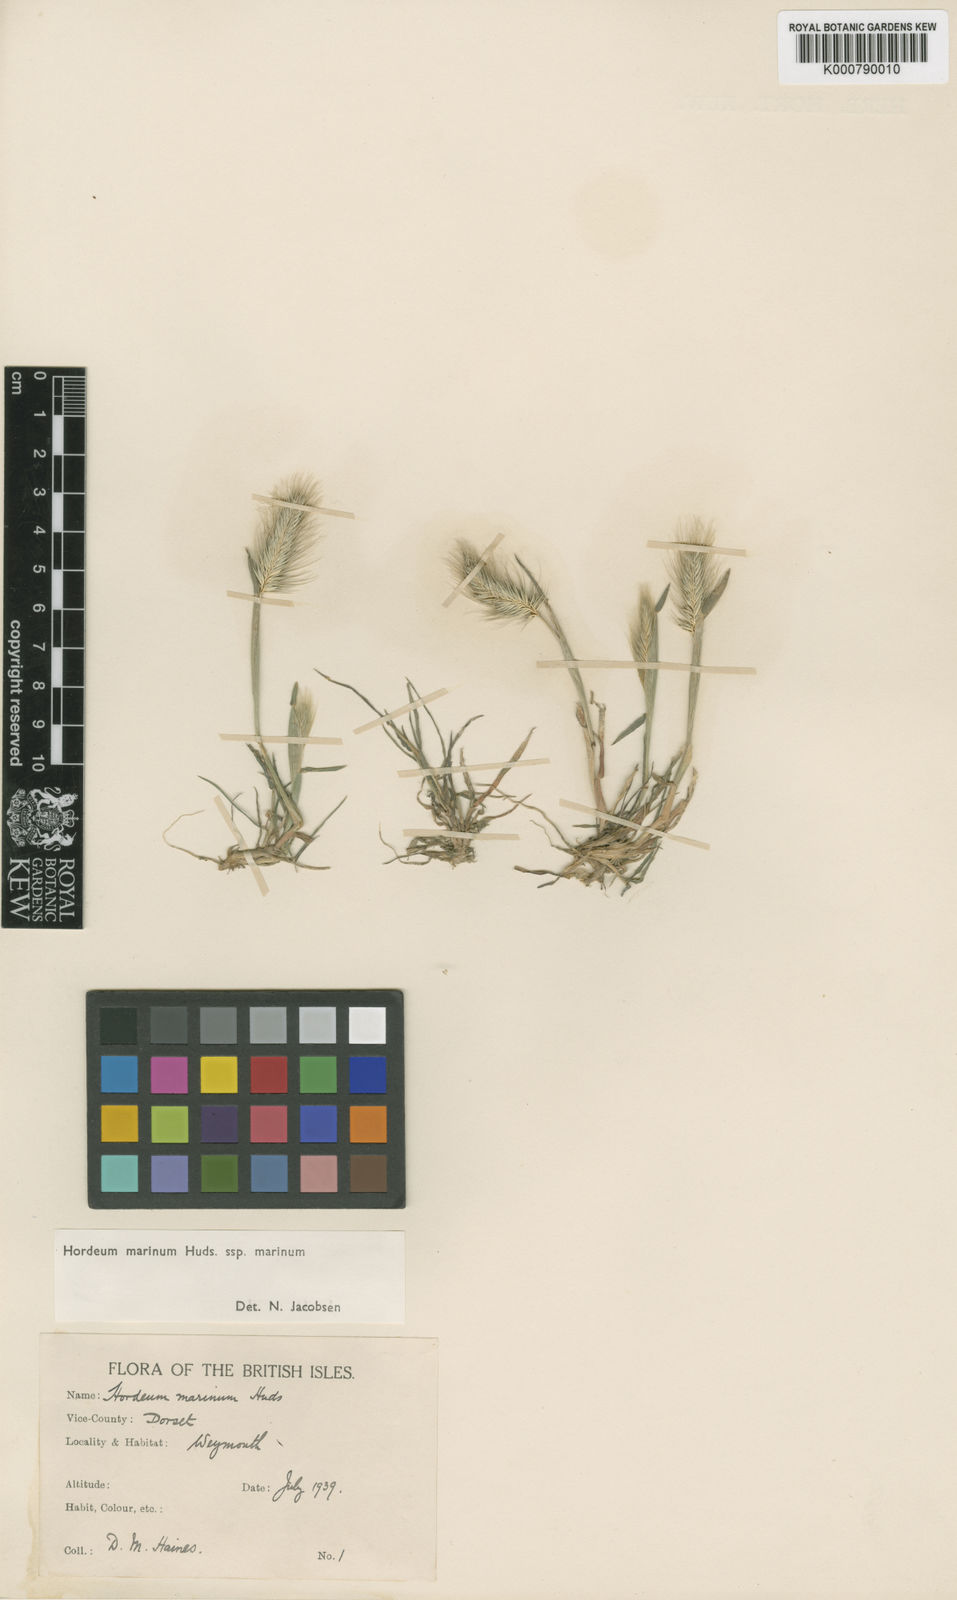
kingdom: Plantae
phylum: Tracheophyta
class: Liliopsida
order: Poales
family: Poaceae
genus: Hordeum
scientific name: Hordeum marinum
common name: Sea barley
